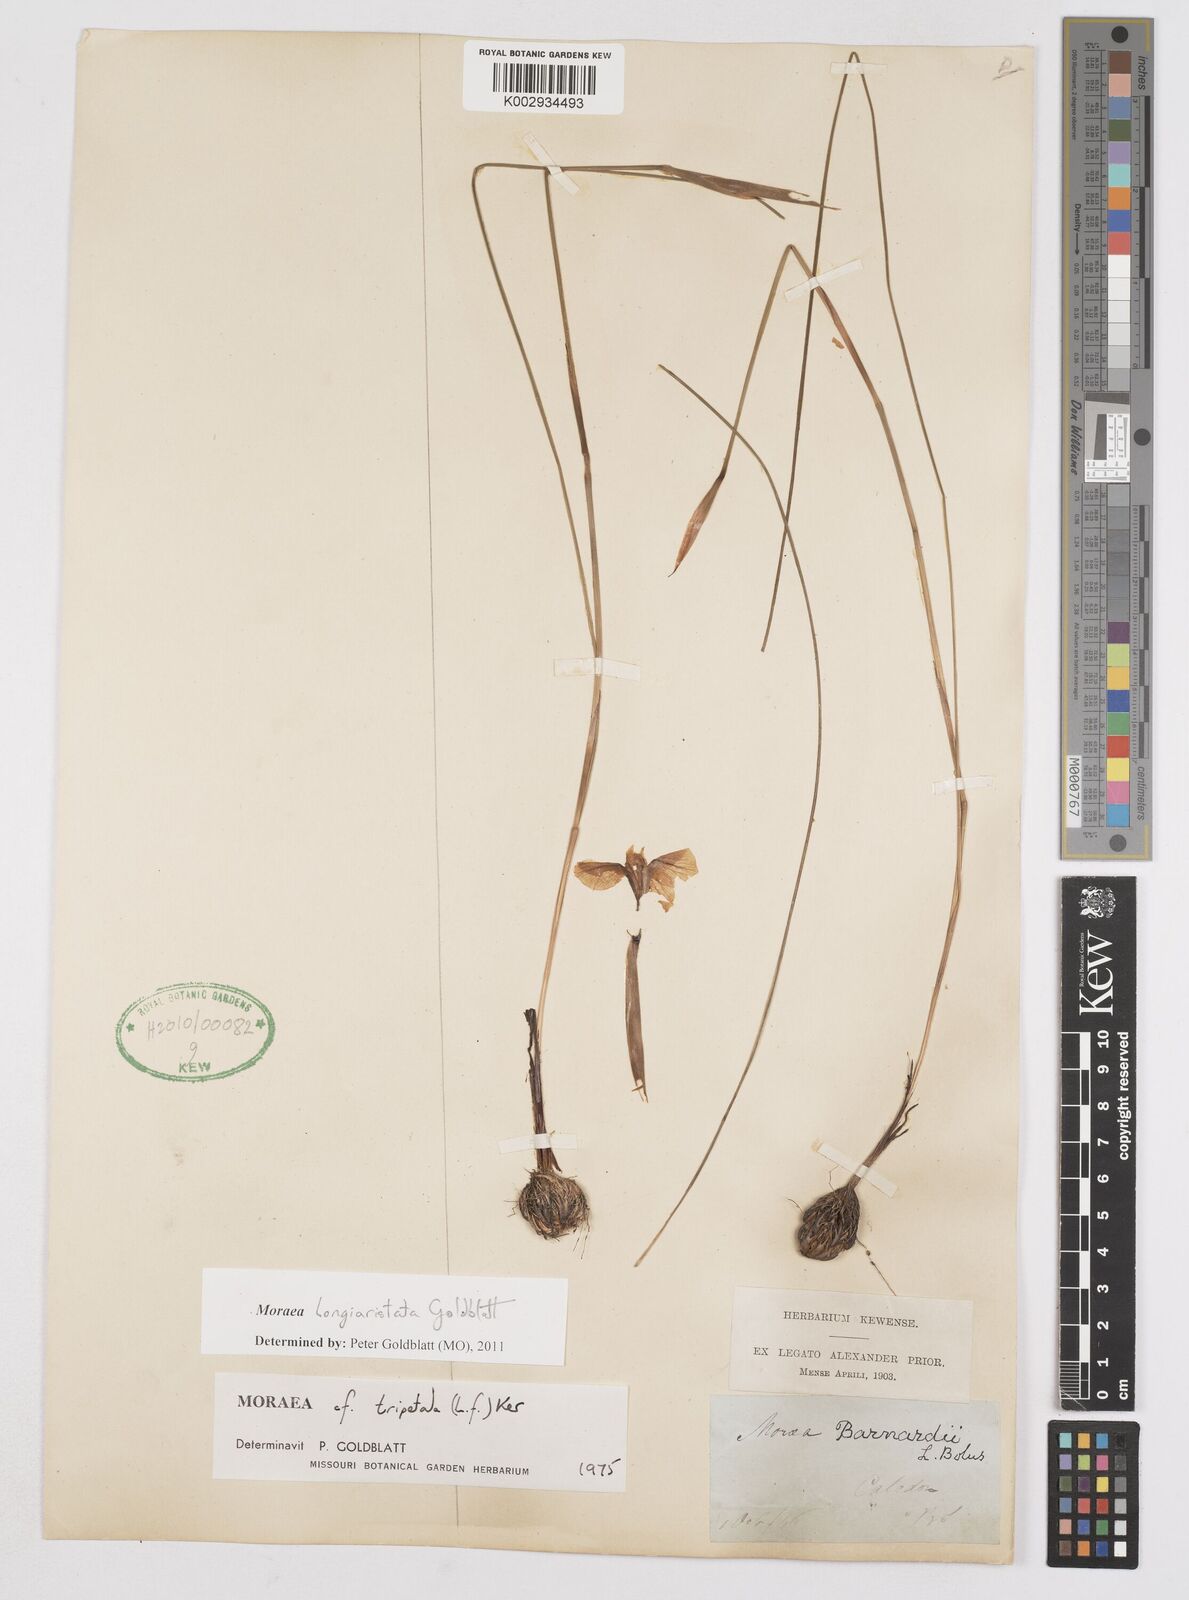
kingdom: Plantae
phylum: Tracheophyta
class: Liliopsida
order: Asparagales
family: Iridaceae
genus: Moraea
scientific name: Moraea longiaristata
